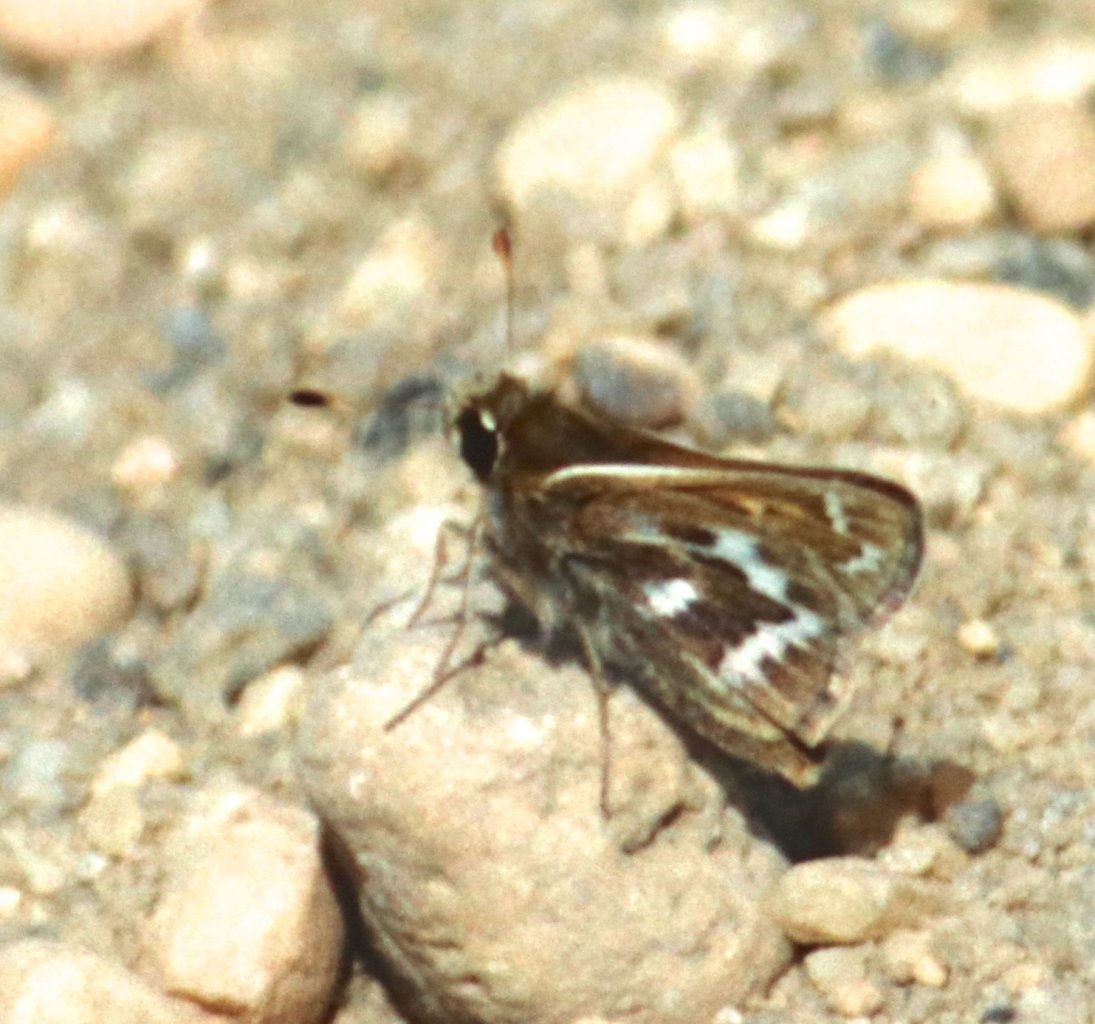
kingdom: Animalia
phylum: Arthropoda
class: Insecta
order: Lepidoptera
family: Hesperiidae
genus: Hesperia
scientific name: Hesperia metea
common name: Cobweb Skipper
